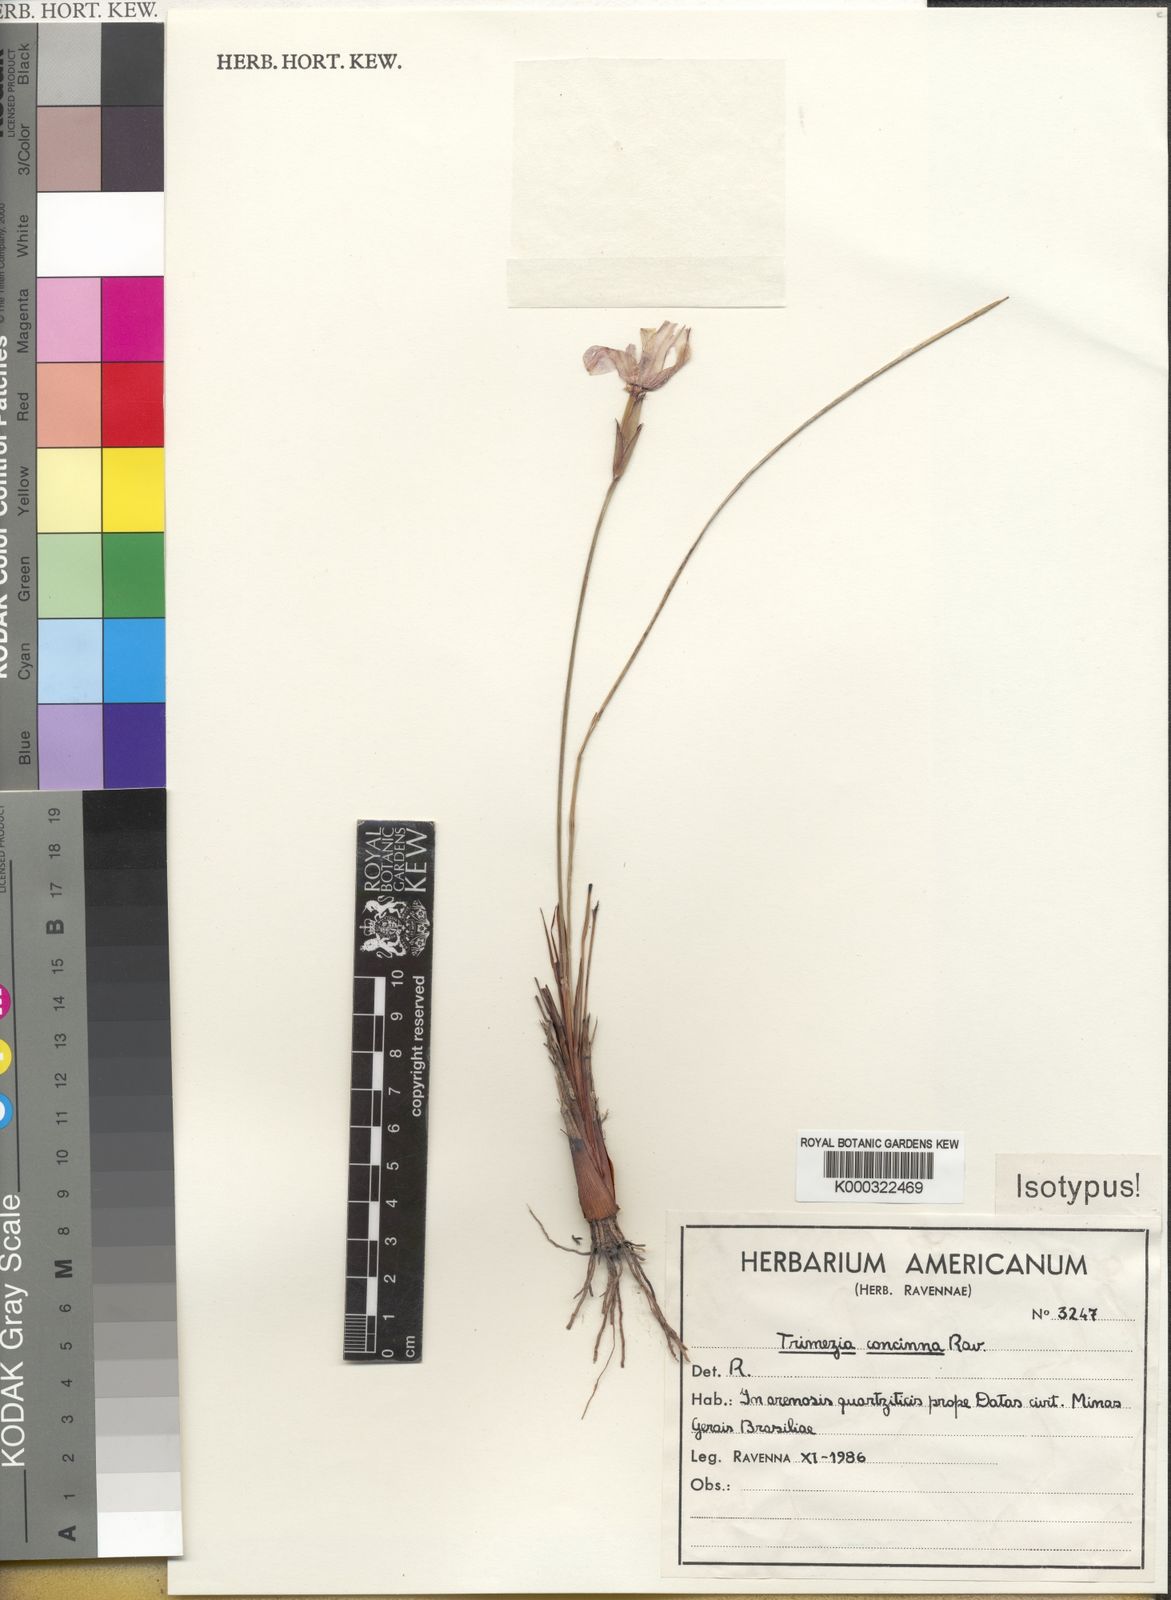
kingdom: Plantae
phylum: Tracheophyta
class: Liliopsida
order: Asparagales
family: Iridaceae
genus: Trimezia
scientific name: Trimezia juncifolia
